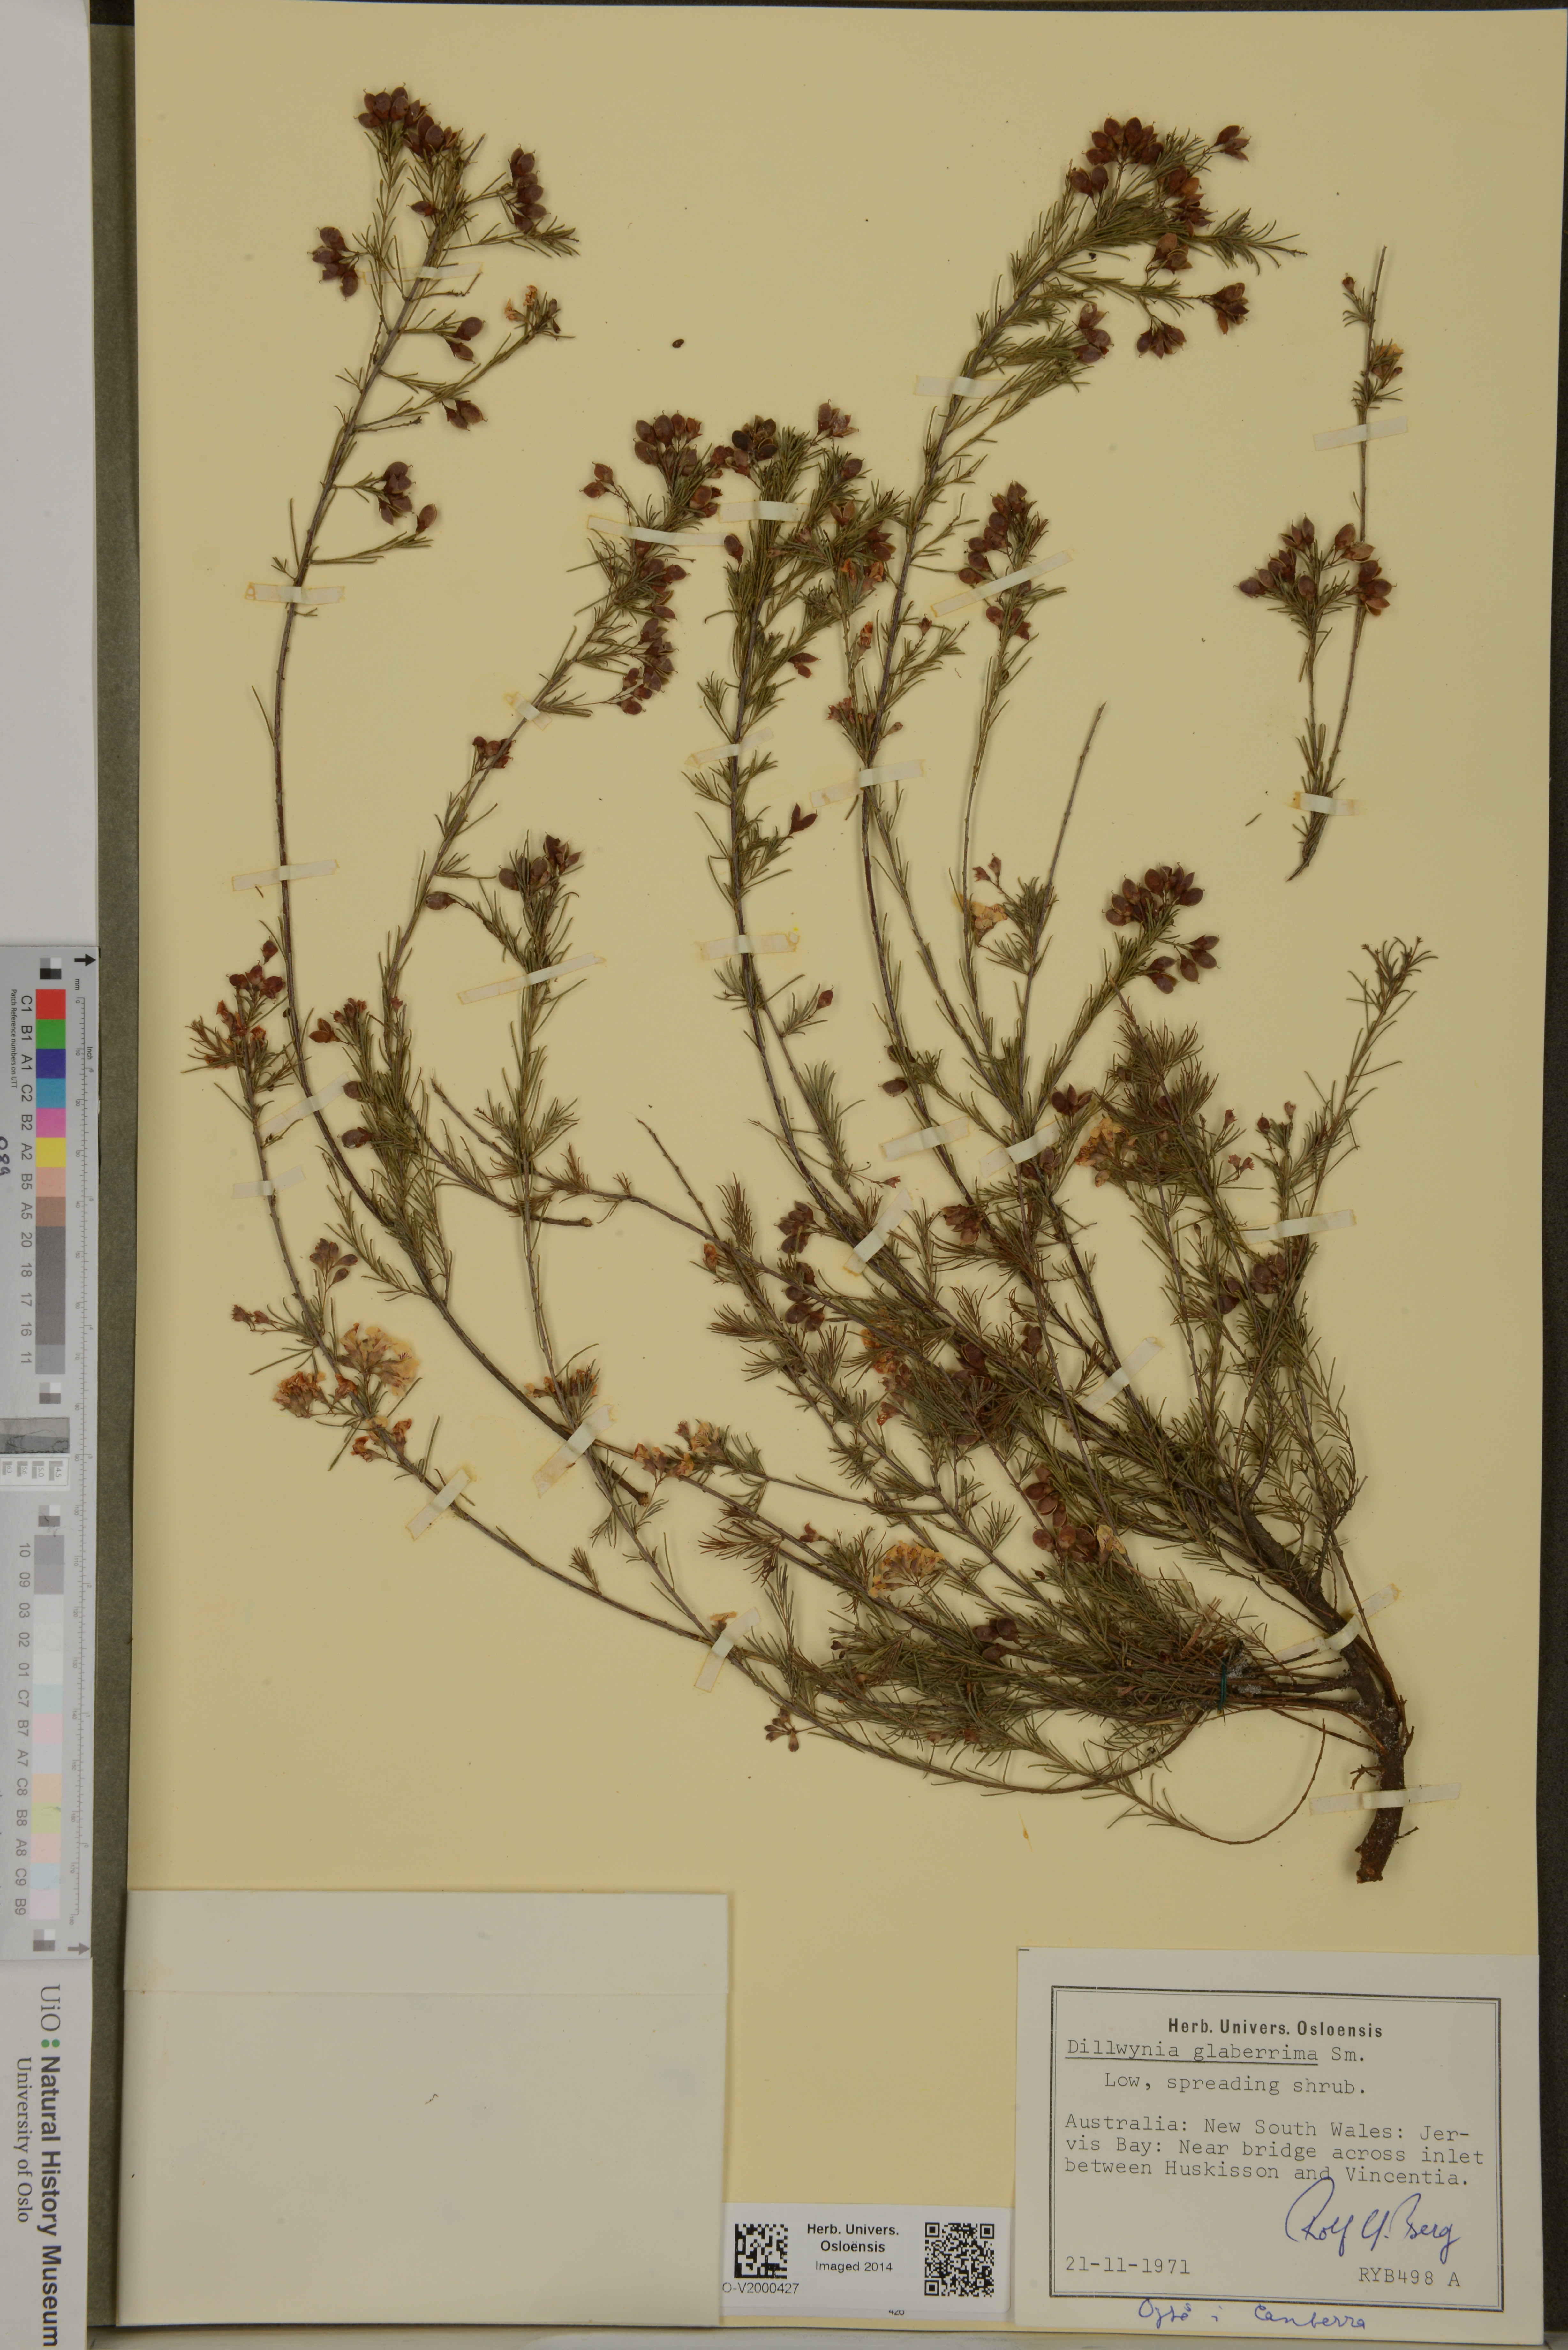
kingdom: Plantae
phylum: Tracheophyta
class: Magnoliopsida
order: Fabales
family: Fabaceae
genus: Dillwynia
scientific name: Dillwynia glaberrima
